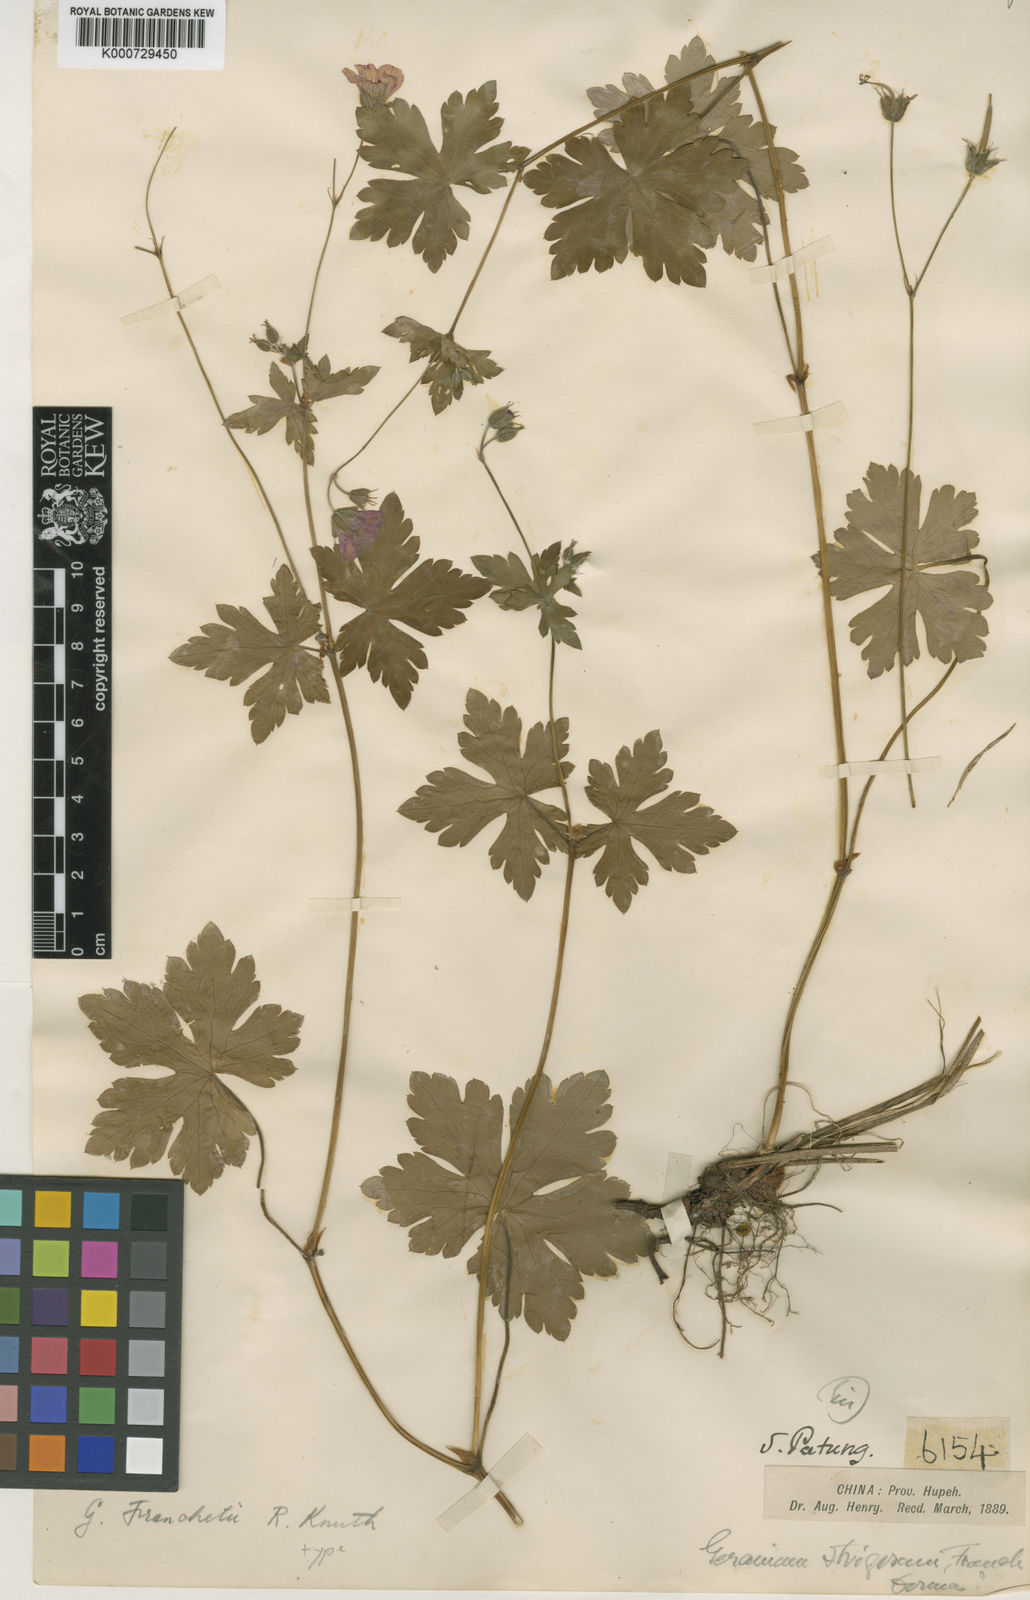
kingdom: Plantae
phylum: Tracheophyta
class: Magnoliopsida
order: Geraniales
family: Geraniaceae
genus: Geranium
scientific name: Geranium franchetii
